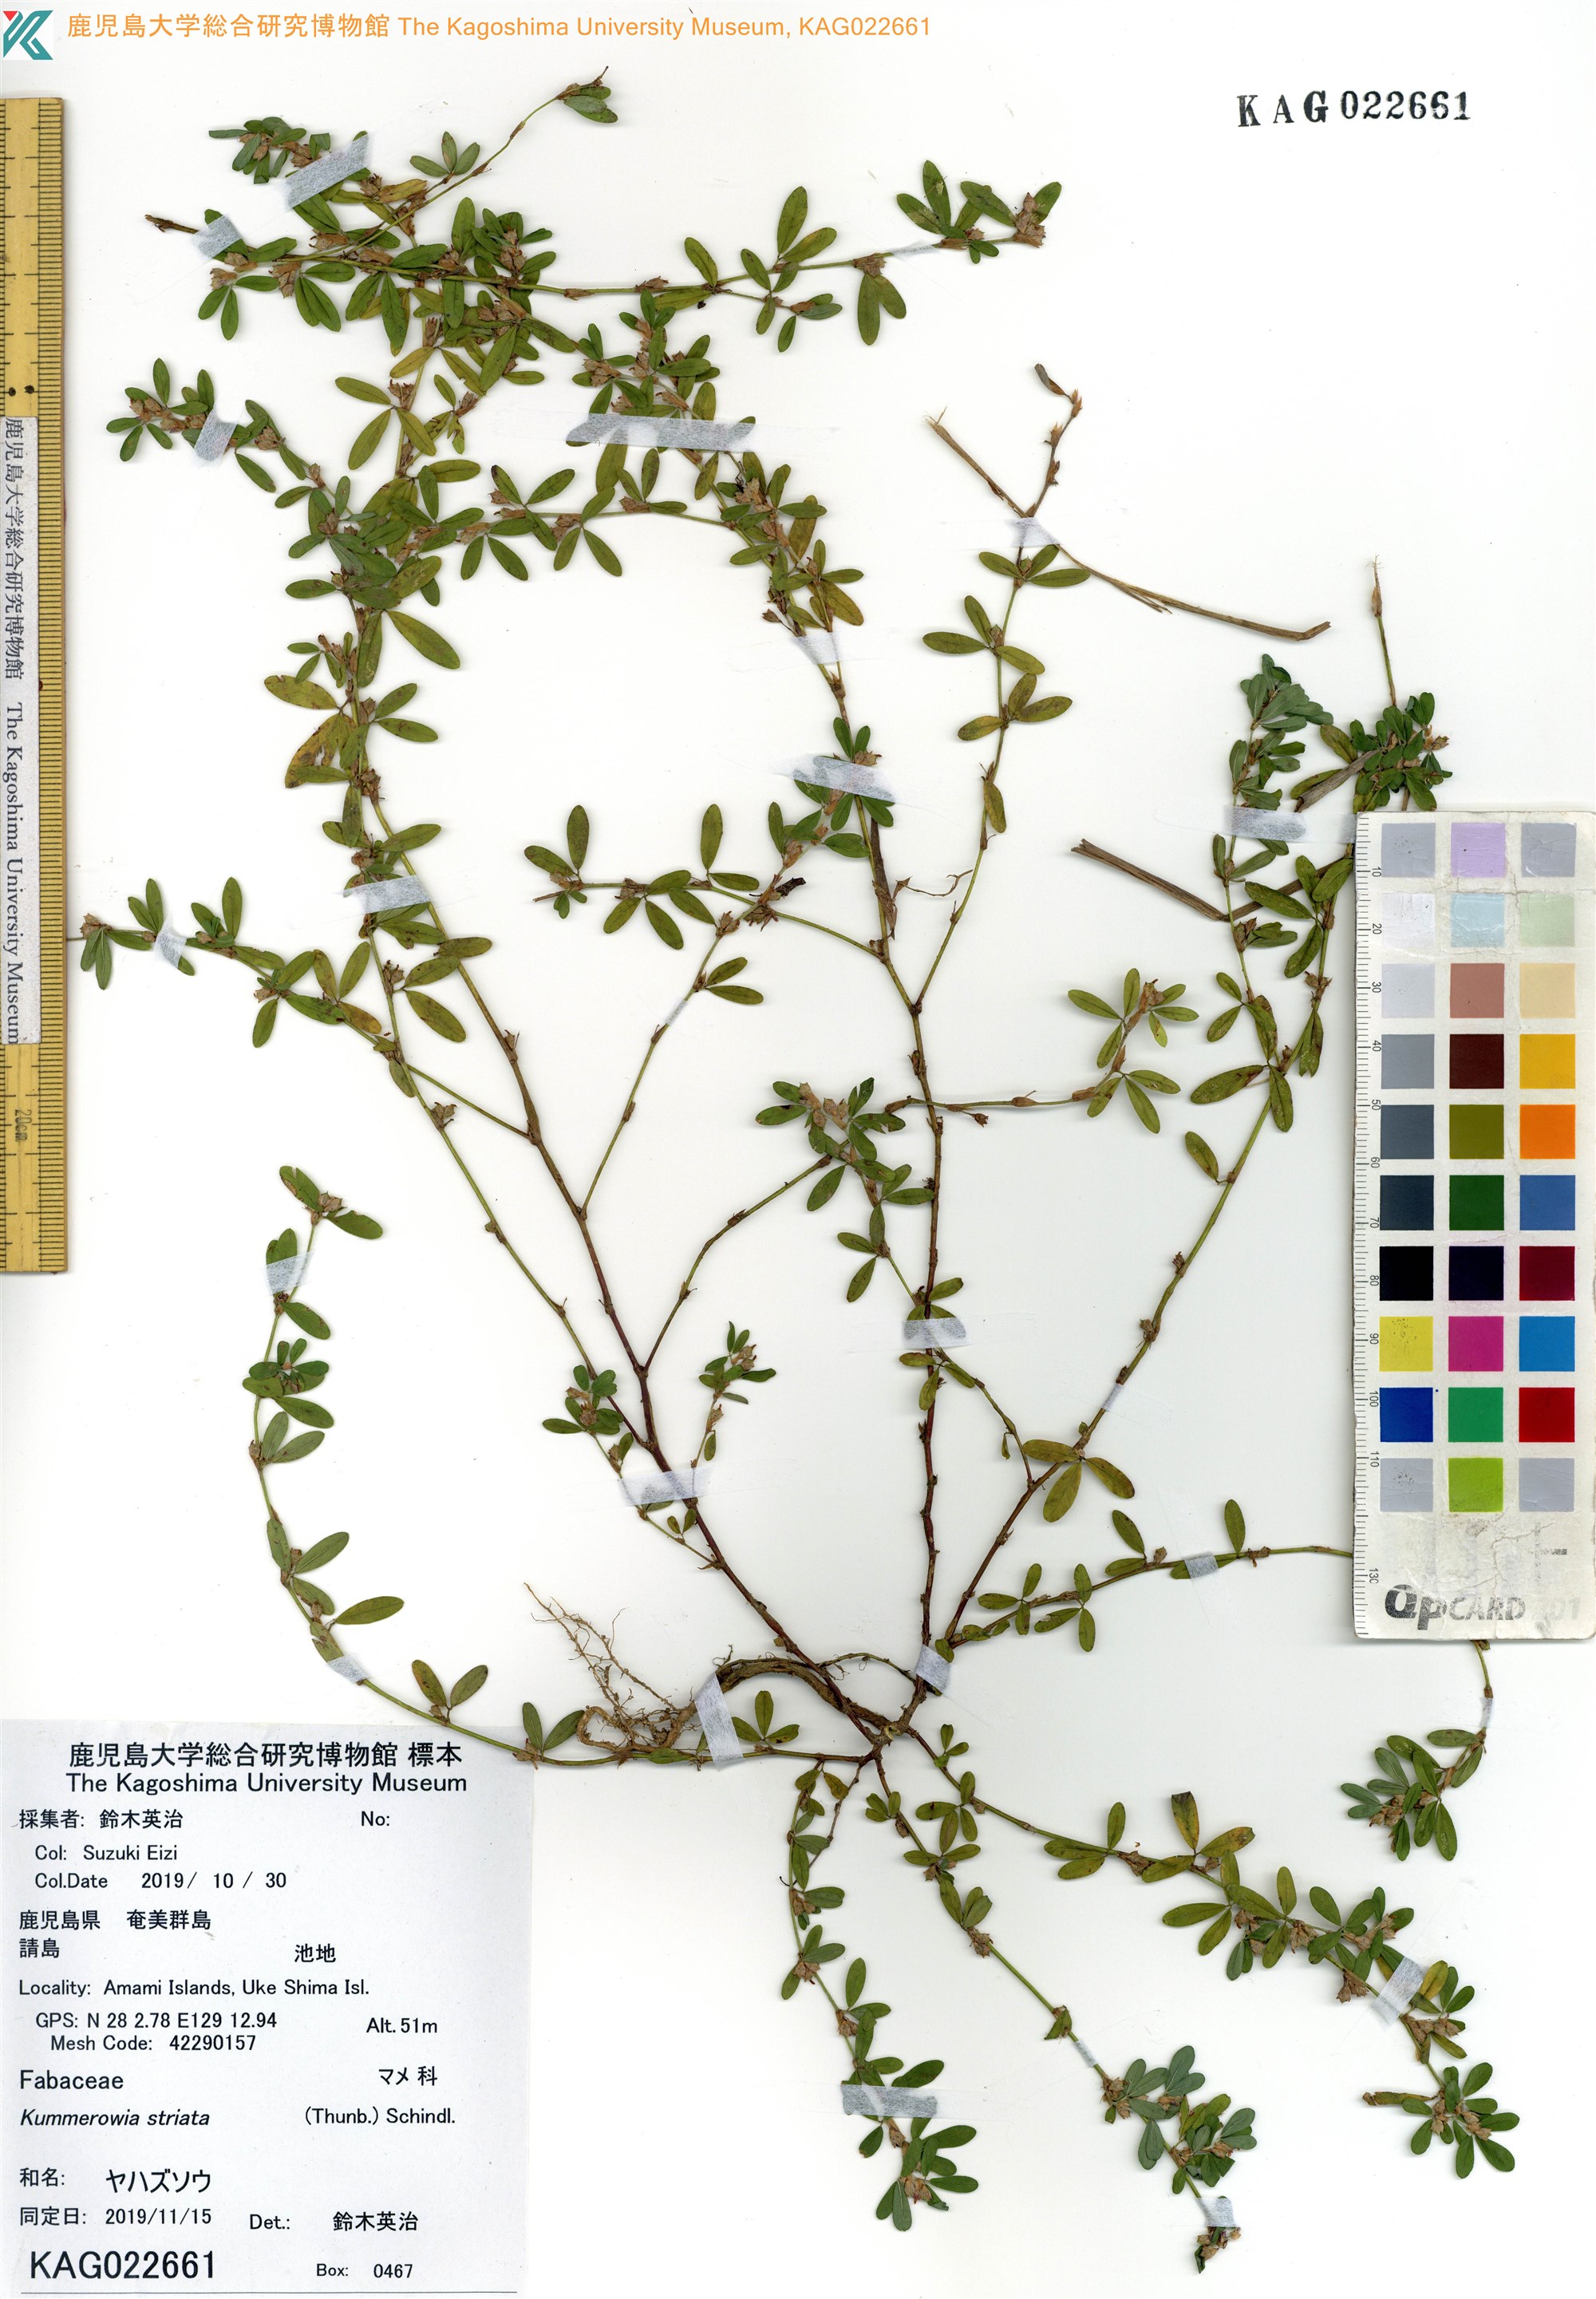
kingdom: Plantae
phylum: Tracheophyta
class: Magnoliopsida
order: Fabales
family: Fabaceae
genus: Kummerowia
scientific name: Kummerowia striata
